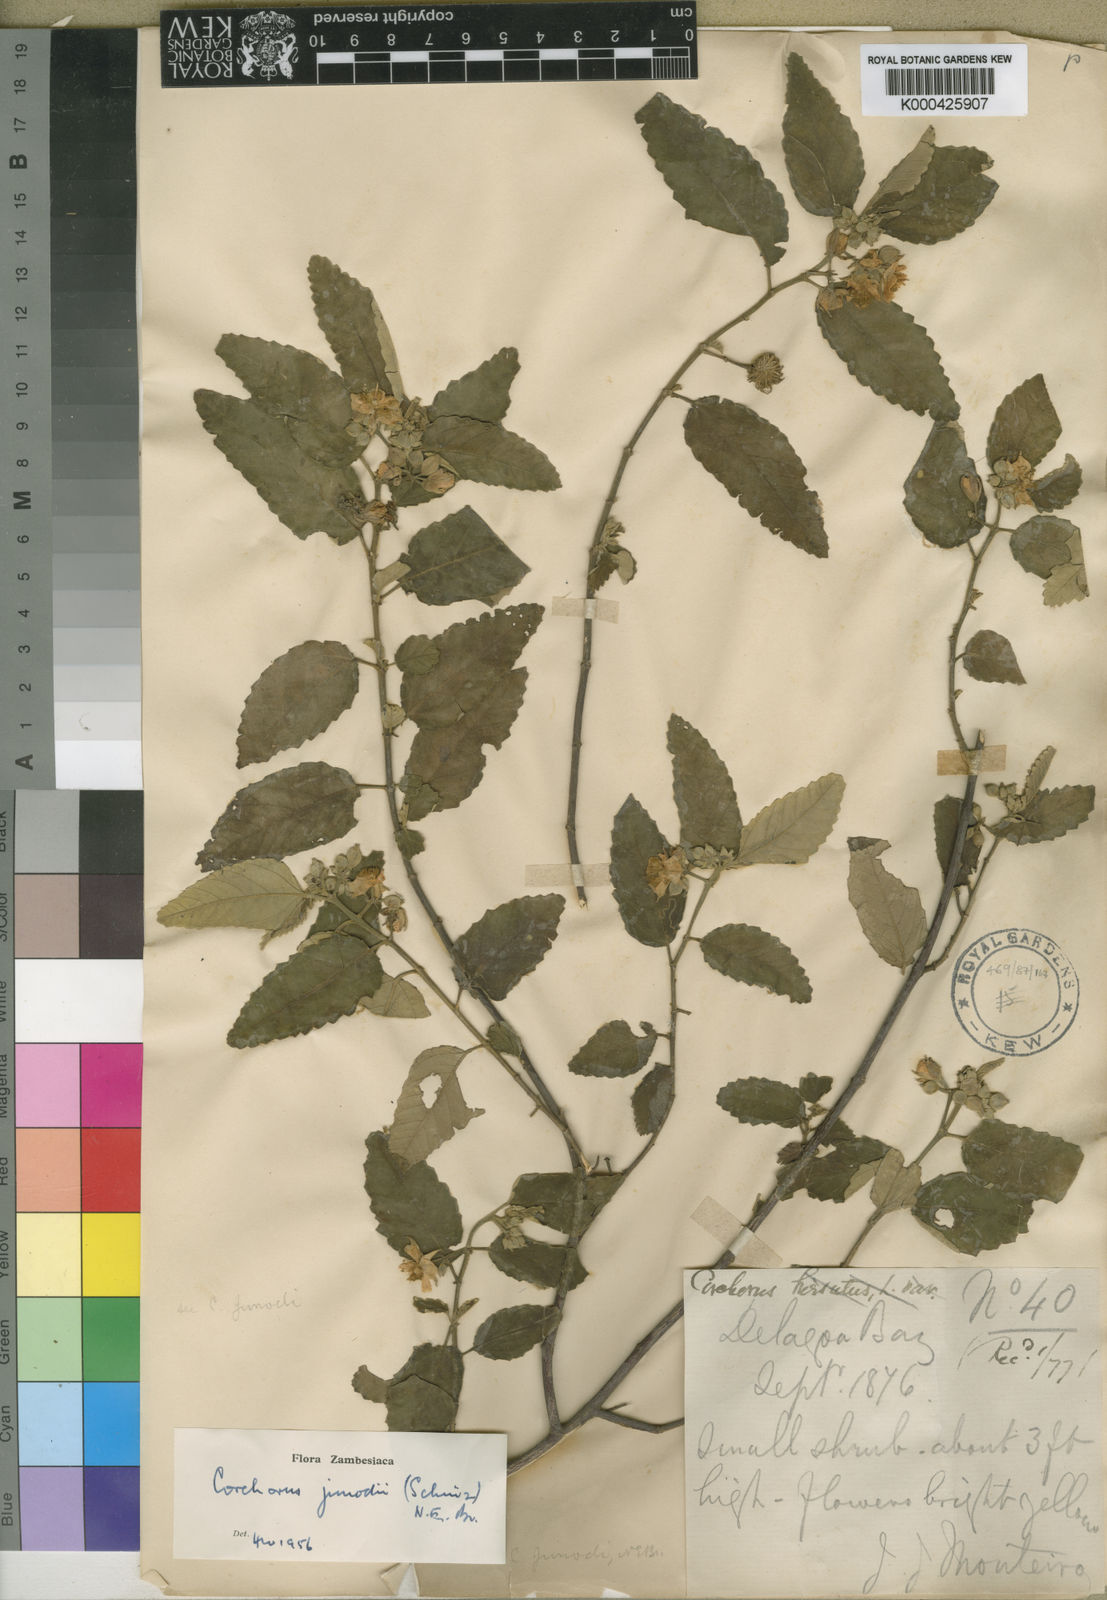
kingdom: Plantae
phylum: Tracheophyta
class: Magnoliopsida
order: Malvales
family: Malvaceae
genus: Corchorus
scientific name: Corchorus junodii
